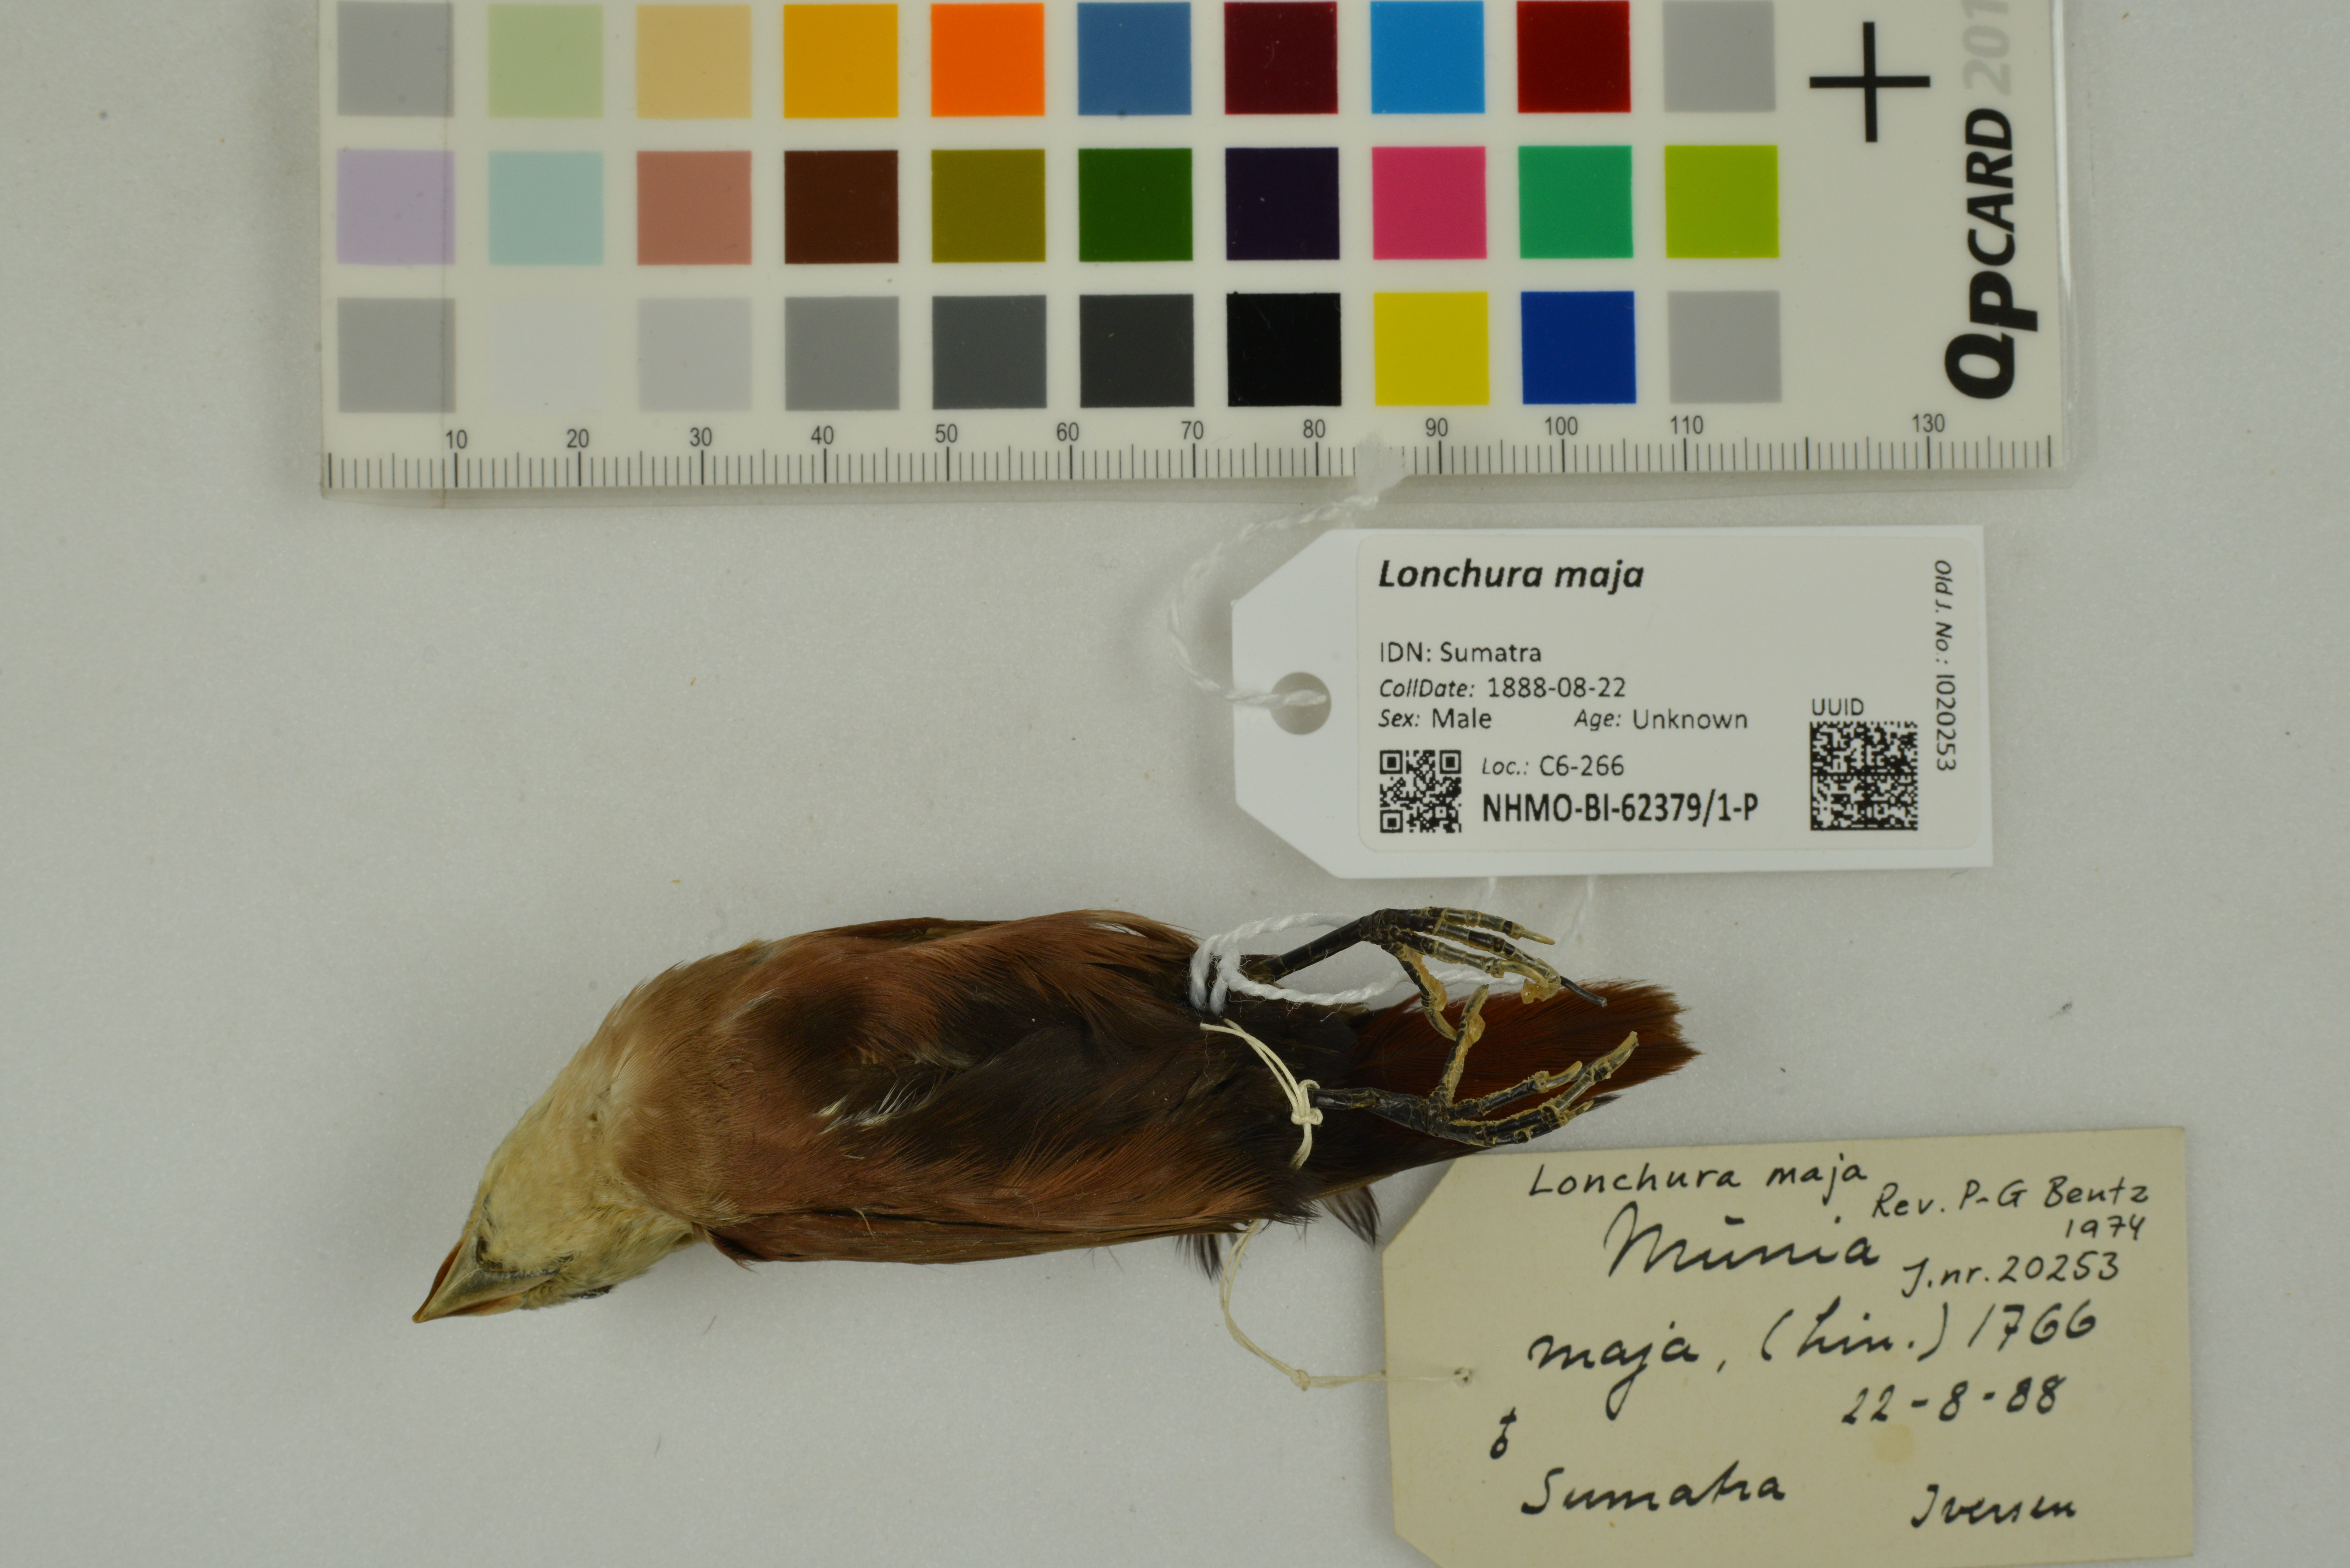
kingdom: Animalia
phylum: Chordata
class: Aves
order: Passeriformes
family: Estrildidae
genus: Lonchura
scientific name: Lonchura maja
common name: White-headed munia
